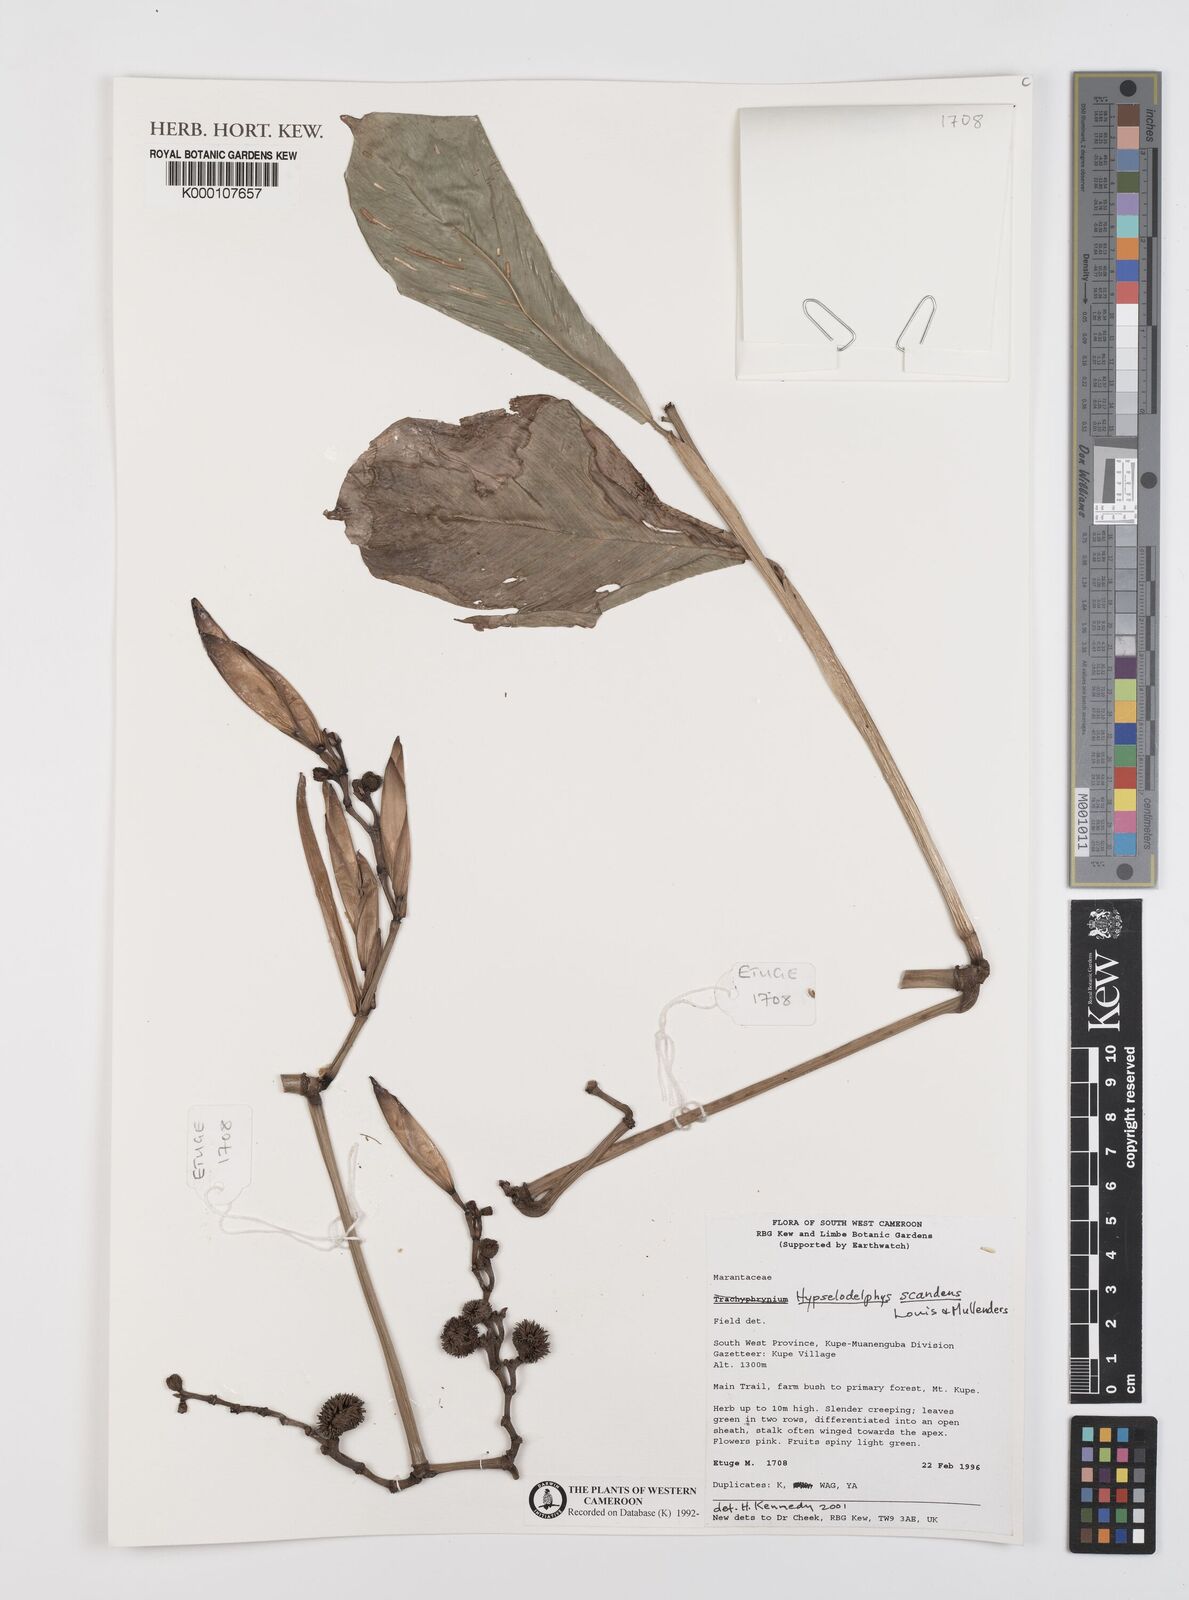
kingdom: Plantae
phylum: Tracheophyta
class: Liliopsida
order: Zingiberales
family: Marantaceae
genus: Hypselodelphys
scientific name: Hypselodelphys scandens
